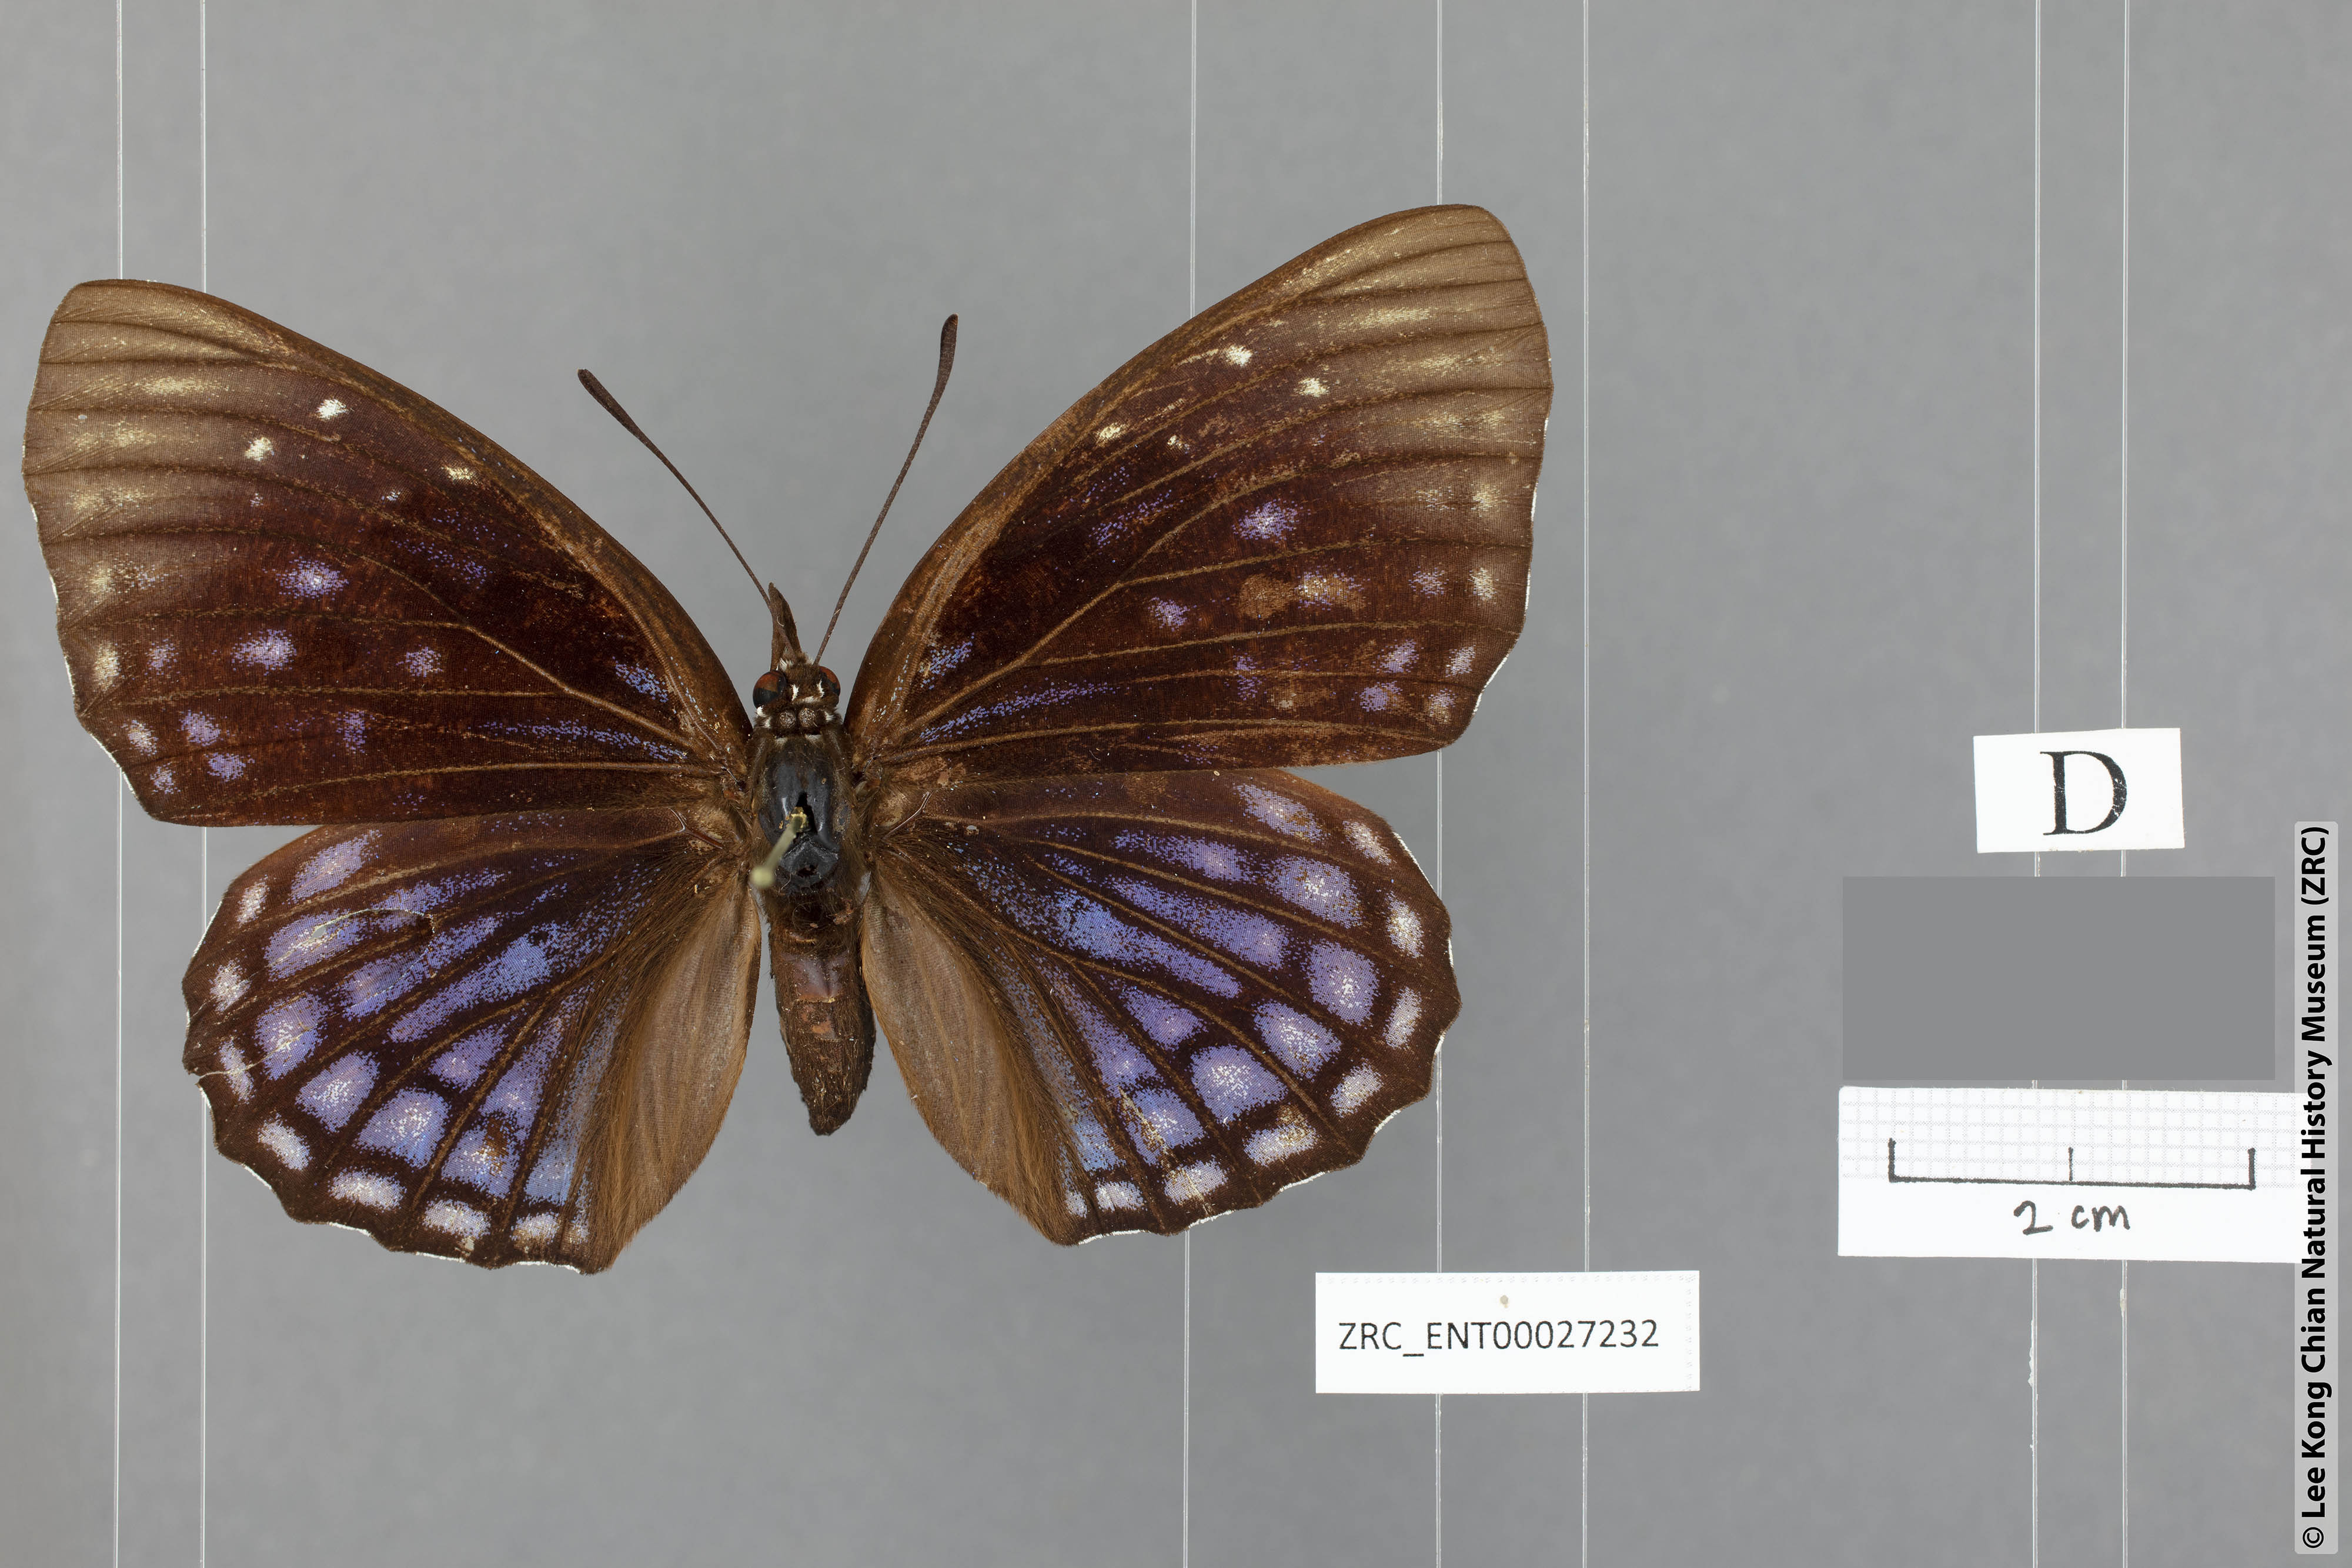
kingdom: Animalia
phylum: Arthropoda
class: Insecta
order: Lepidoptera
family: Nymphalidae
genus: Sephisa
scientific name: Sephisa chandra
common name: Eastern courtier
